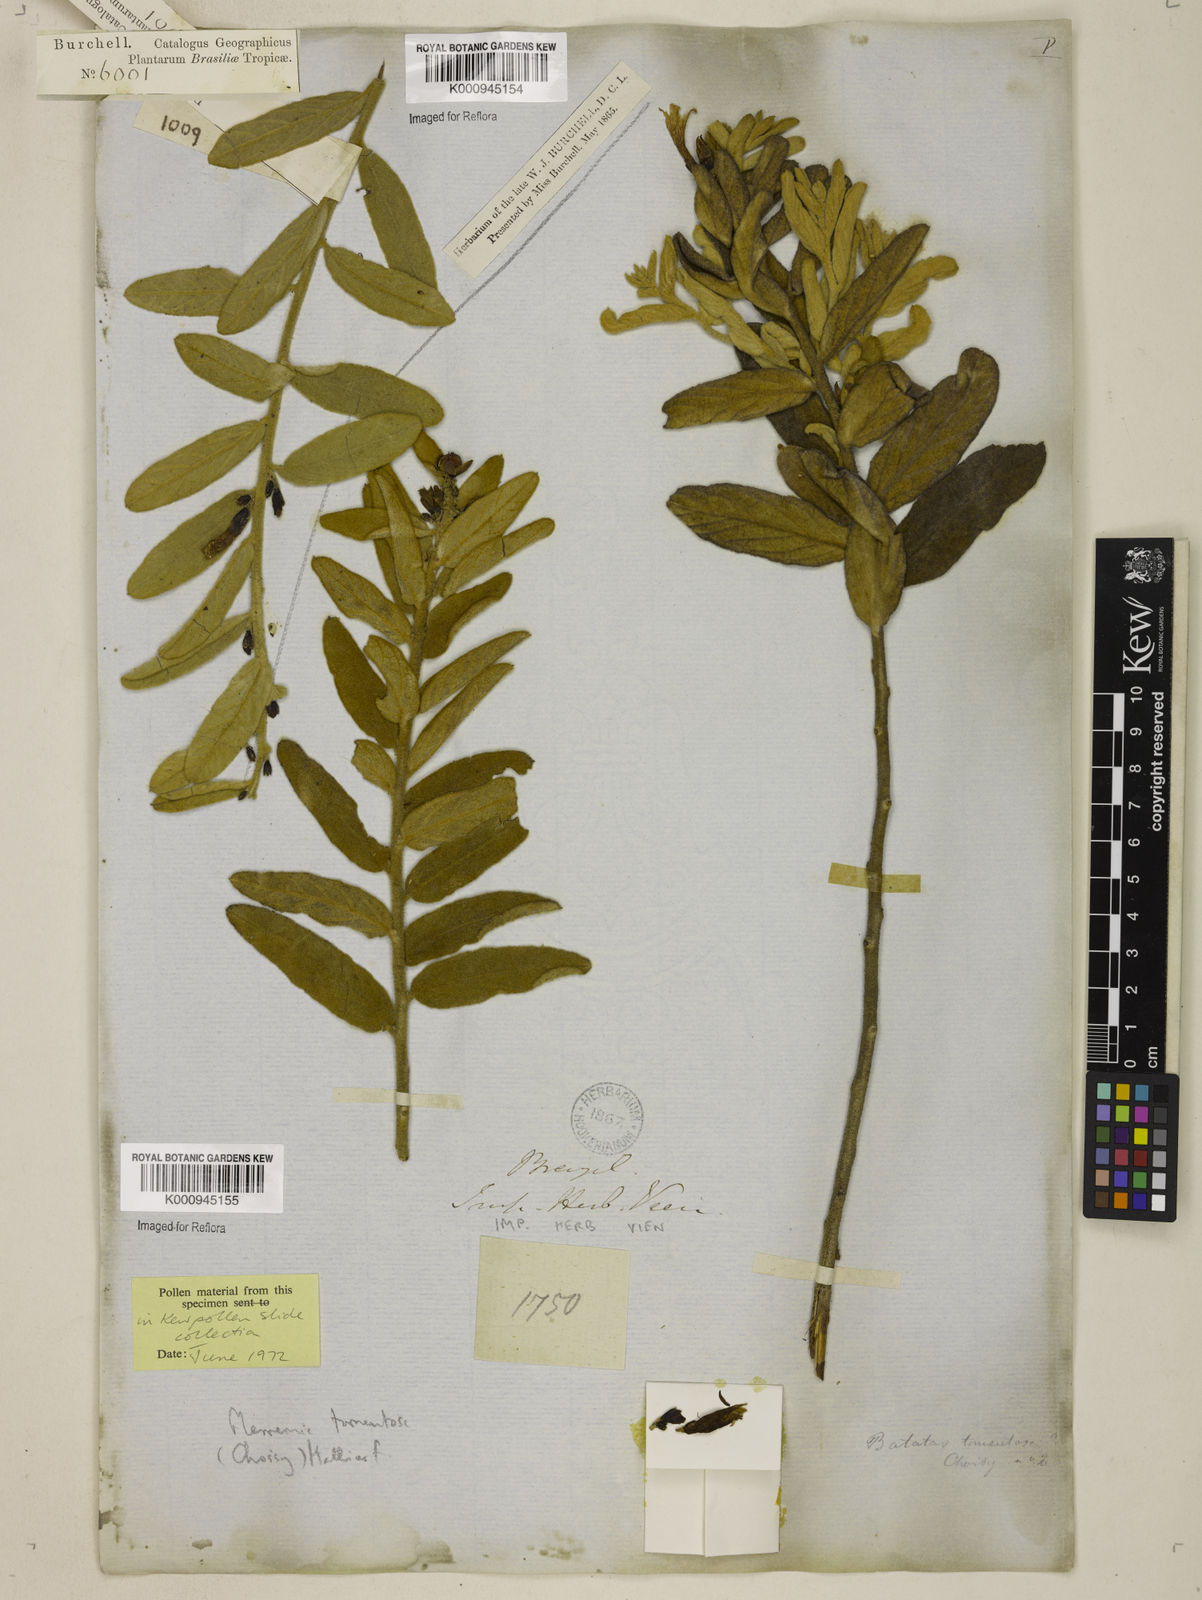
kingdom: Plantae
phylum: Tracheophyta
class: Magnoliopsida
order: Solanales
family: Convolvulaceae
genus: Distimake
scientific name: Distimake tomentosus
